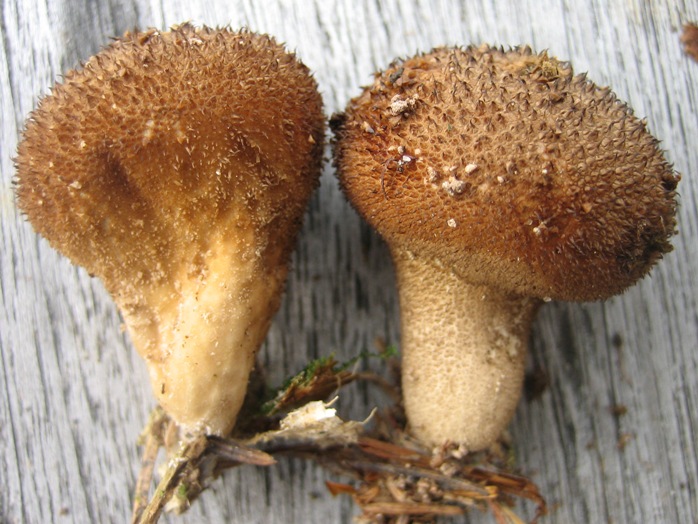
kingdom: Fungi
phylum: Basidiomycota
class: Agaricomycetes
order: Agaricales
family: Lycoperdaceae
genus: Lycoperdon
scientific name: Lycoperdon nigrescens
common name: sortagtig støvbold
